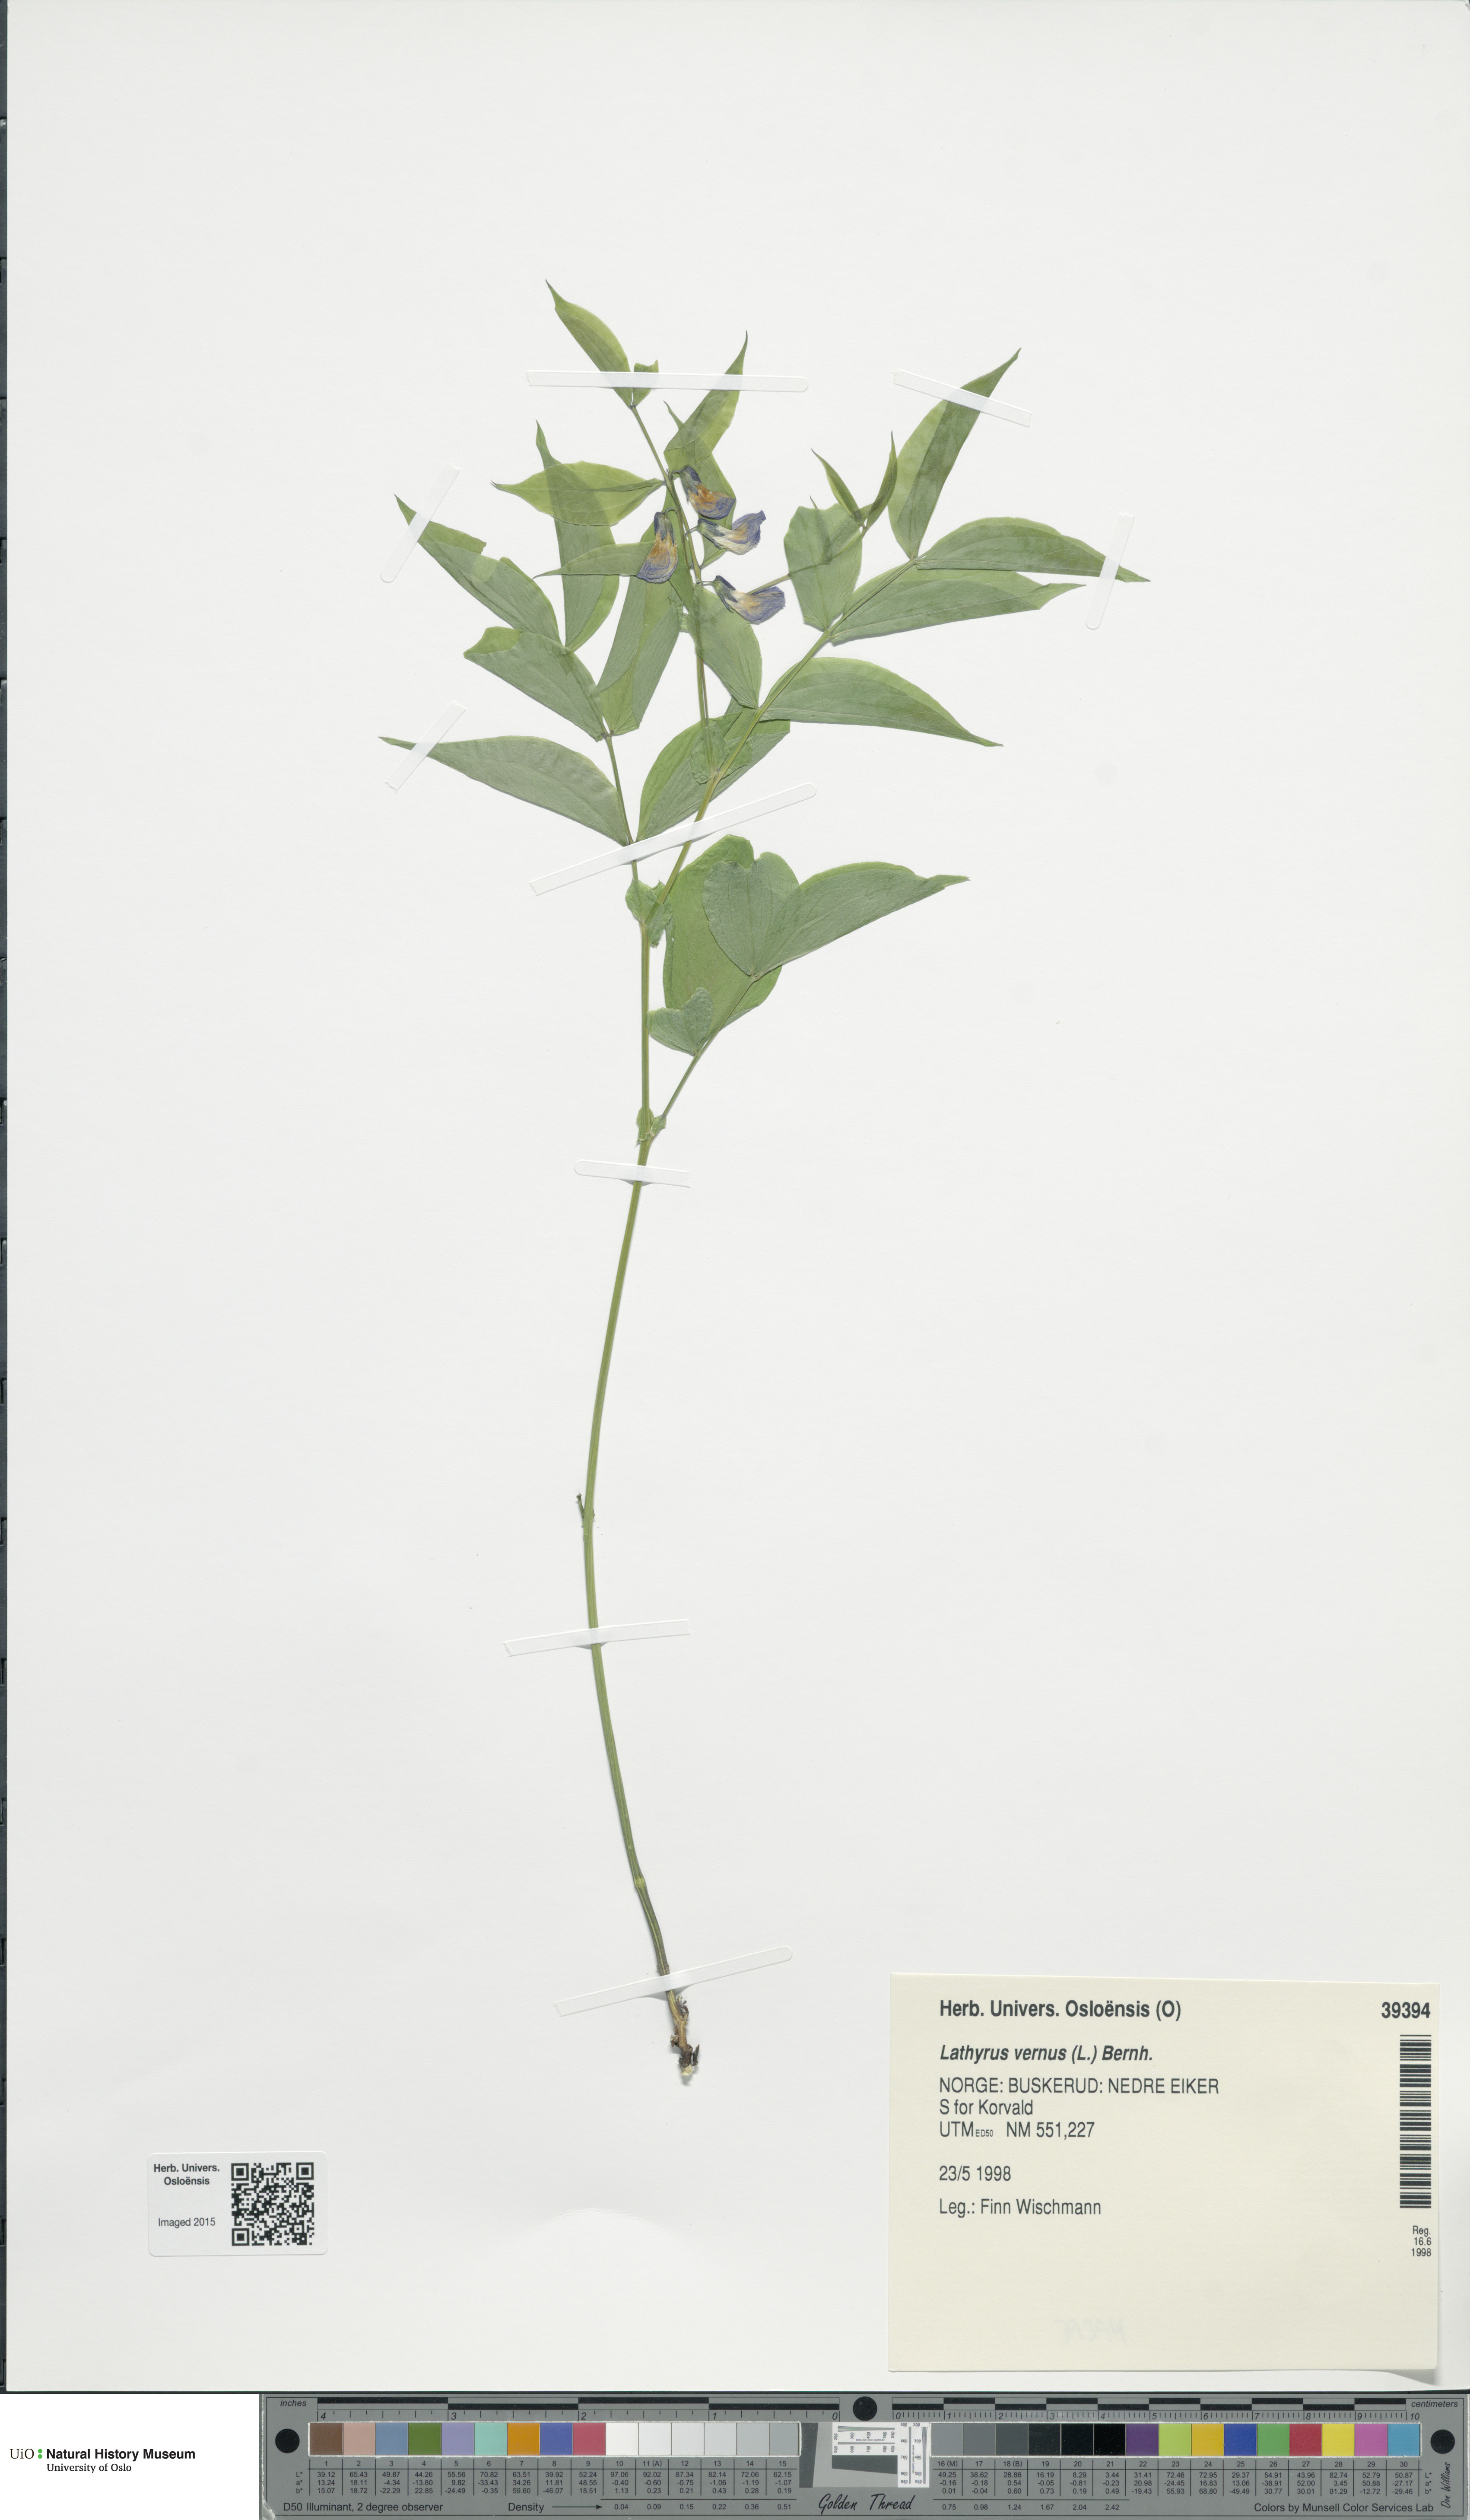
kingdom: Plantae
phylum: Tracheophyta
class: Magnoliopsida
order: Fabales
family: Fabaceae
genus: Lathyrus
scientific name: Lathyrus vernus
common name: Spring pea
